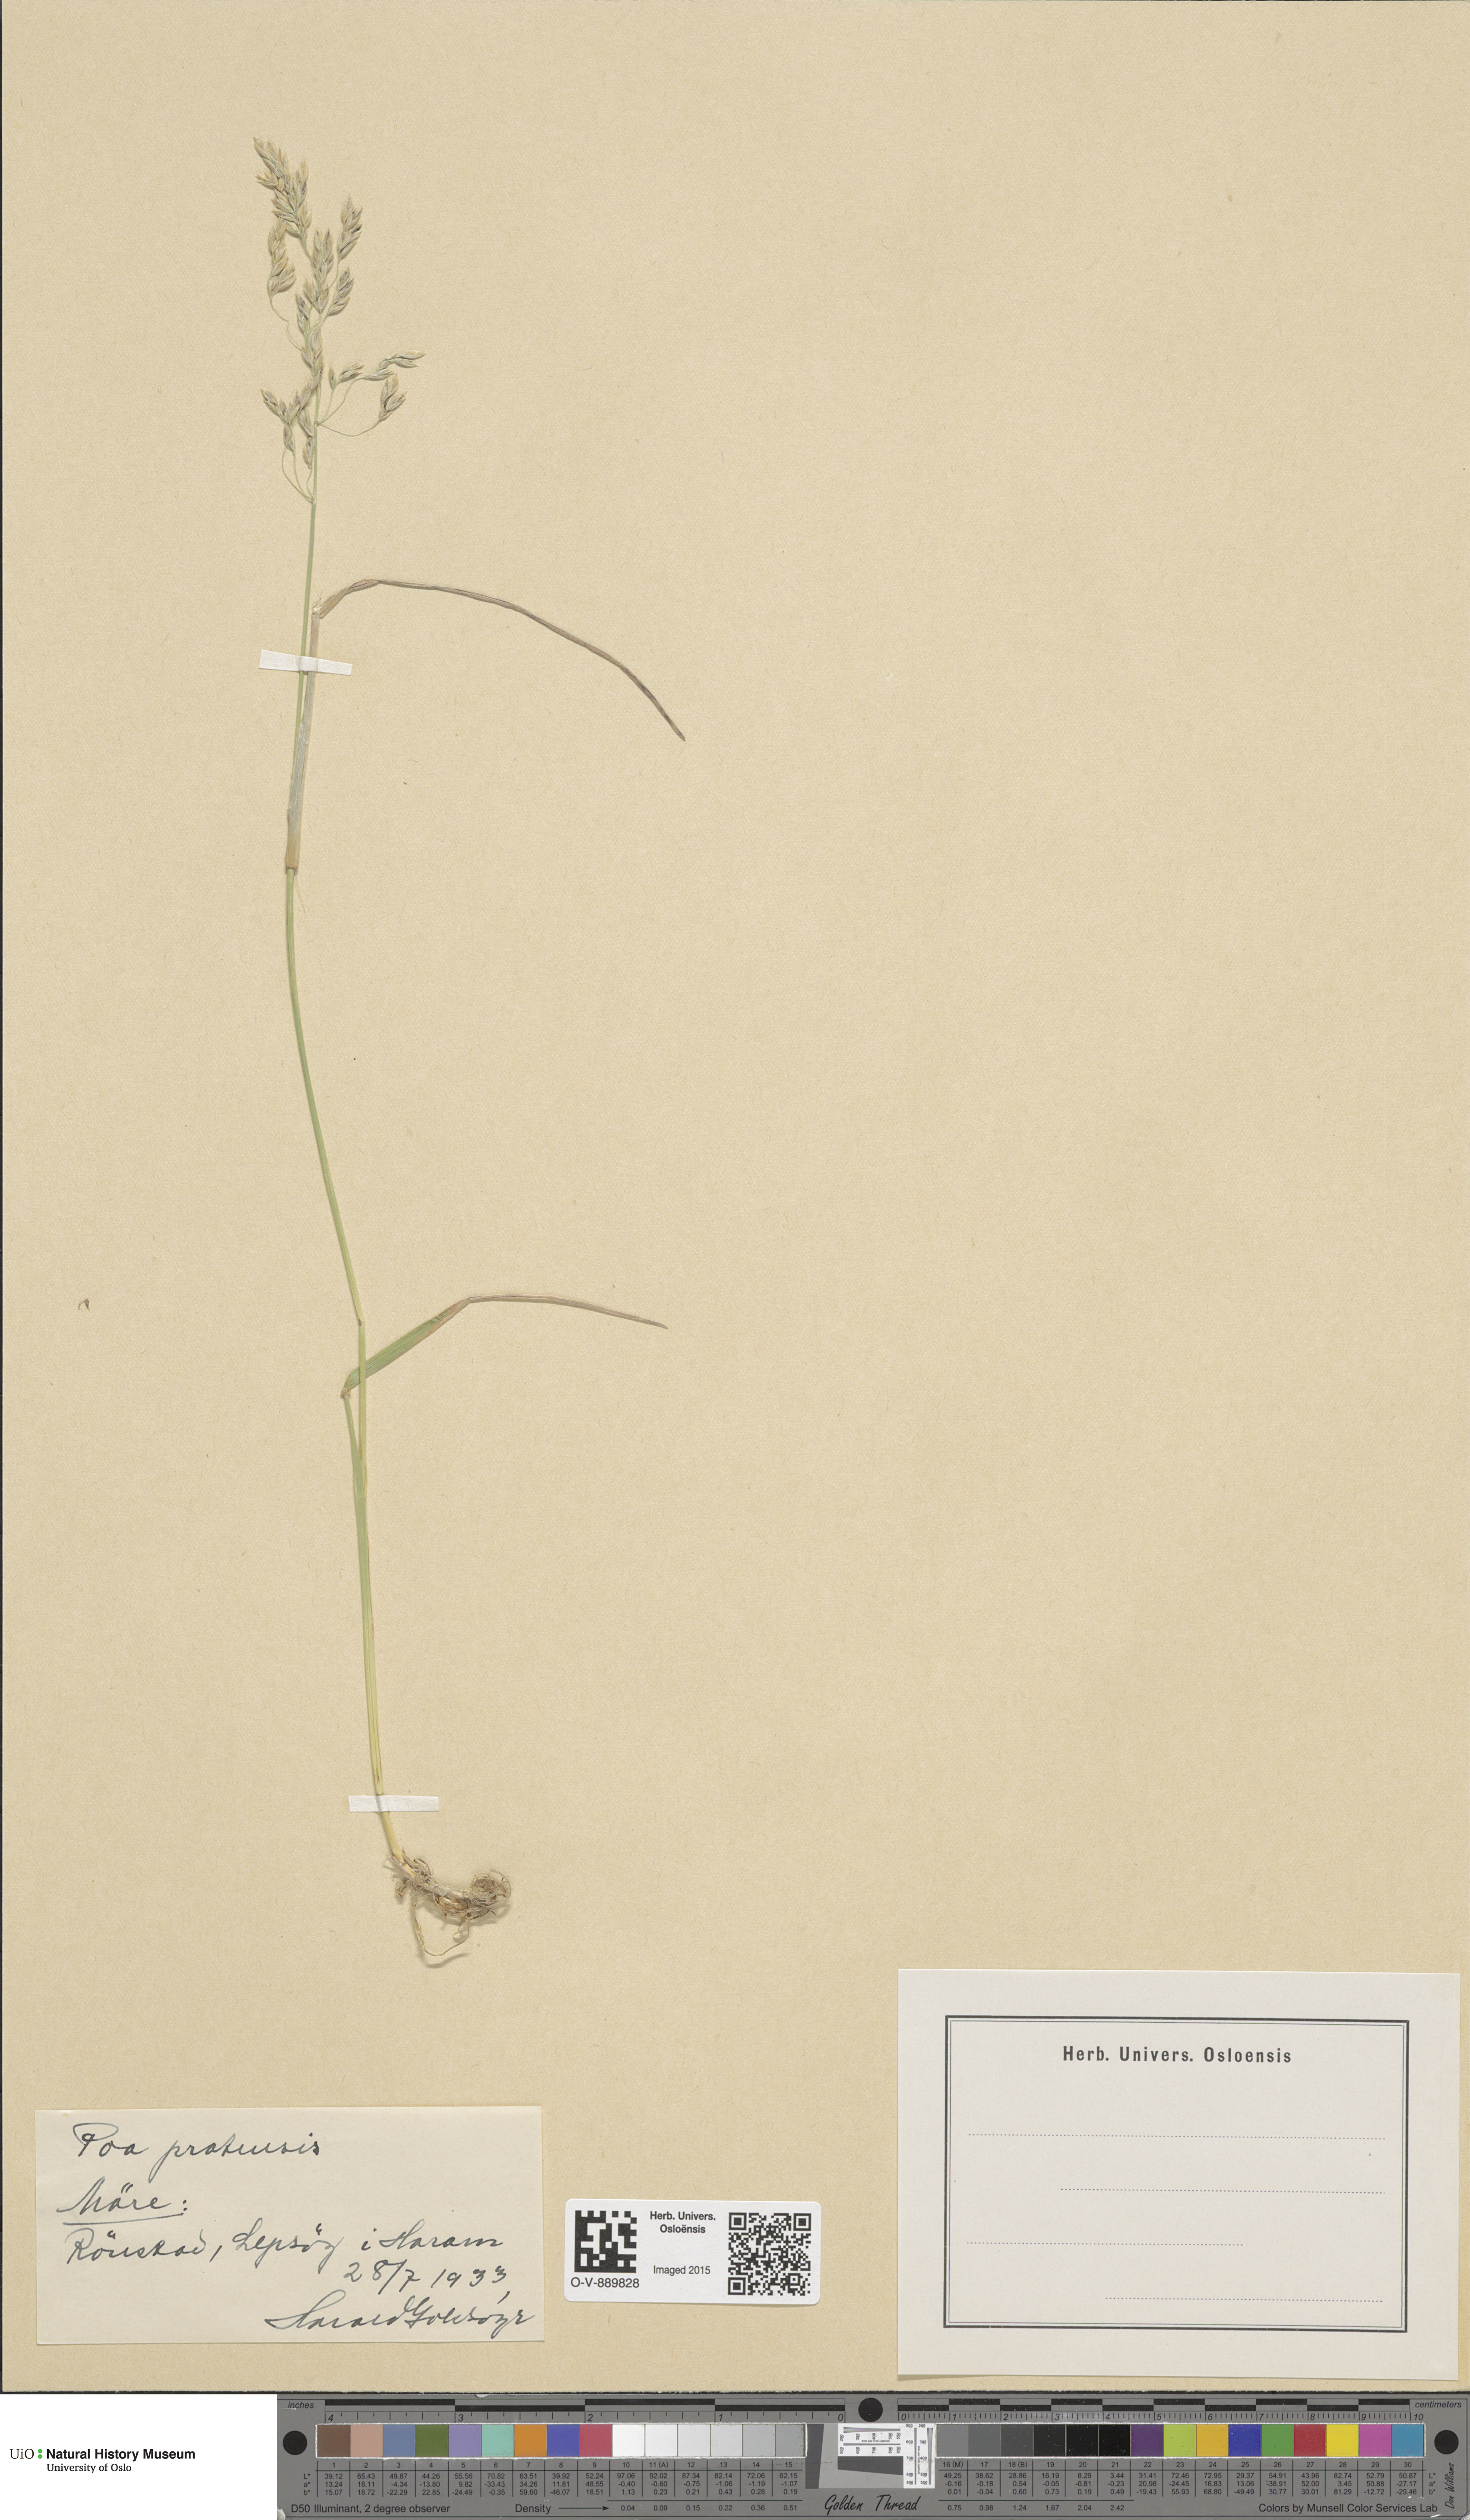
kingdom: Plantae
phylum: Tracheophyta
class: Liliopsida
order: Poales
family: Poaceae
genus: Poa
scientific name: Poa pratensis
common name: Kentucky bluegrass
